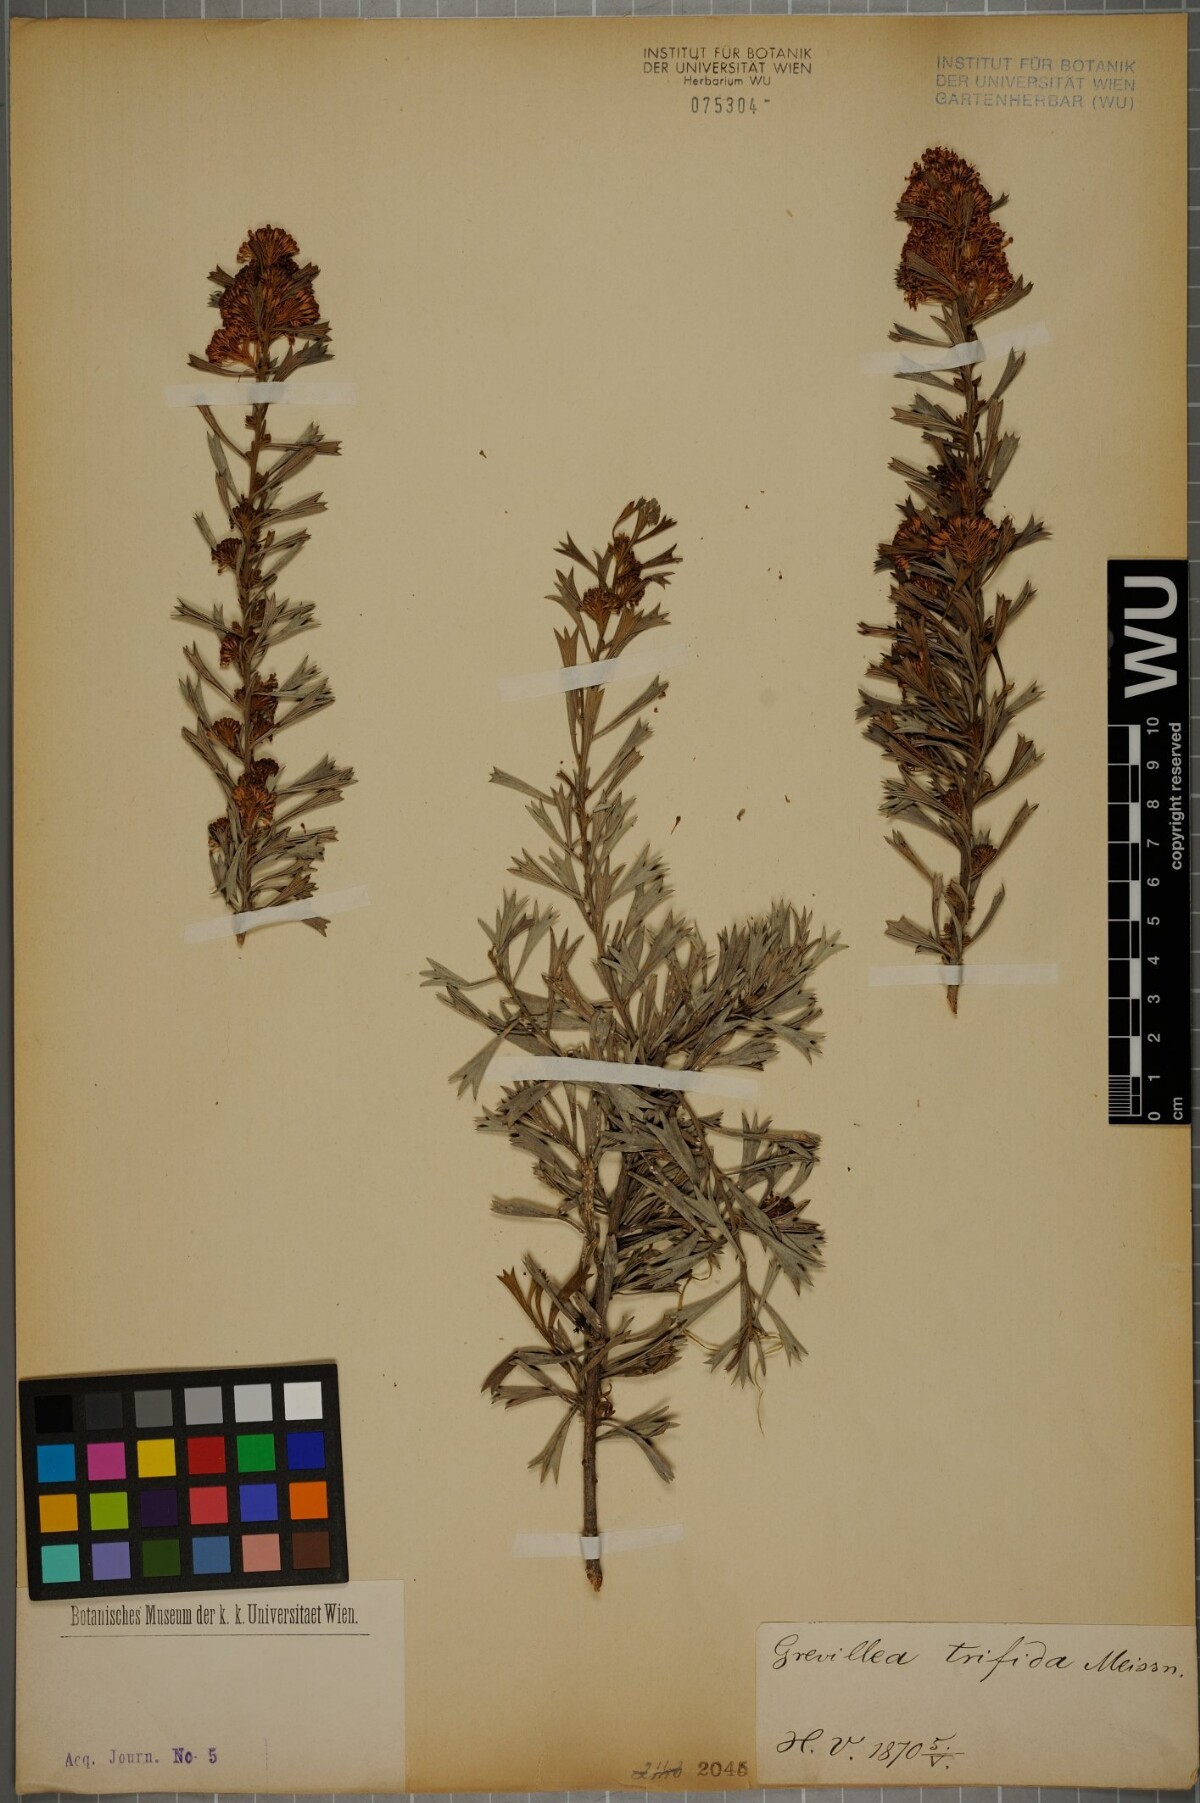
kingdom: Plantae
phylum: Tracheophyta
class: Magnoliopsida
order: Proteales
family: Proteaceae
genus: Grevillea
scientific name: Grevillea trifida
